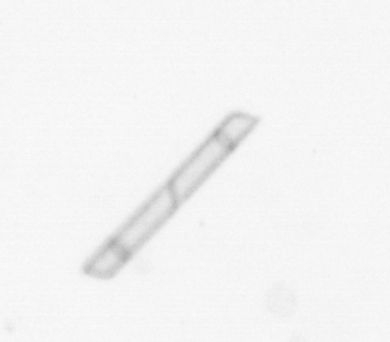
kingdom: Chromista
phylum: Ochrophyta
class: Bacillariophyceae
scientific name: Bacillariophyceae
